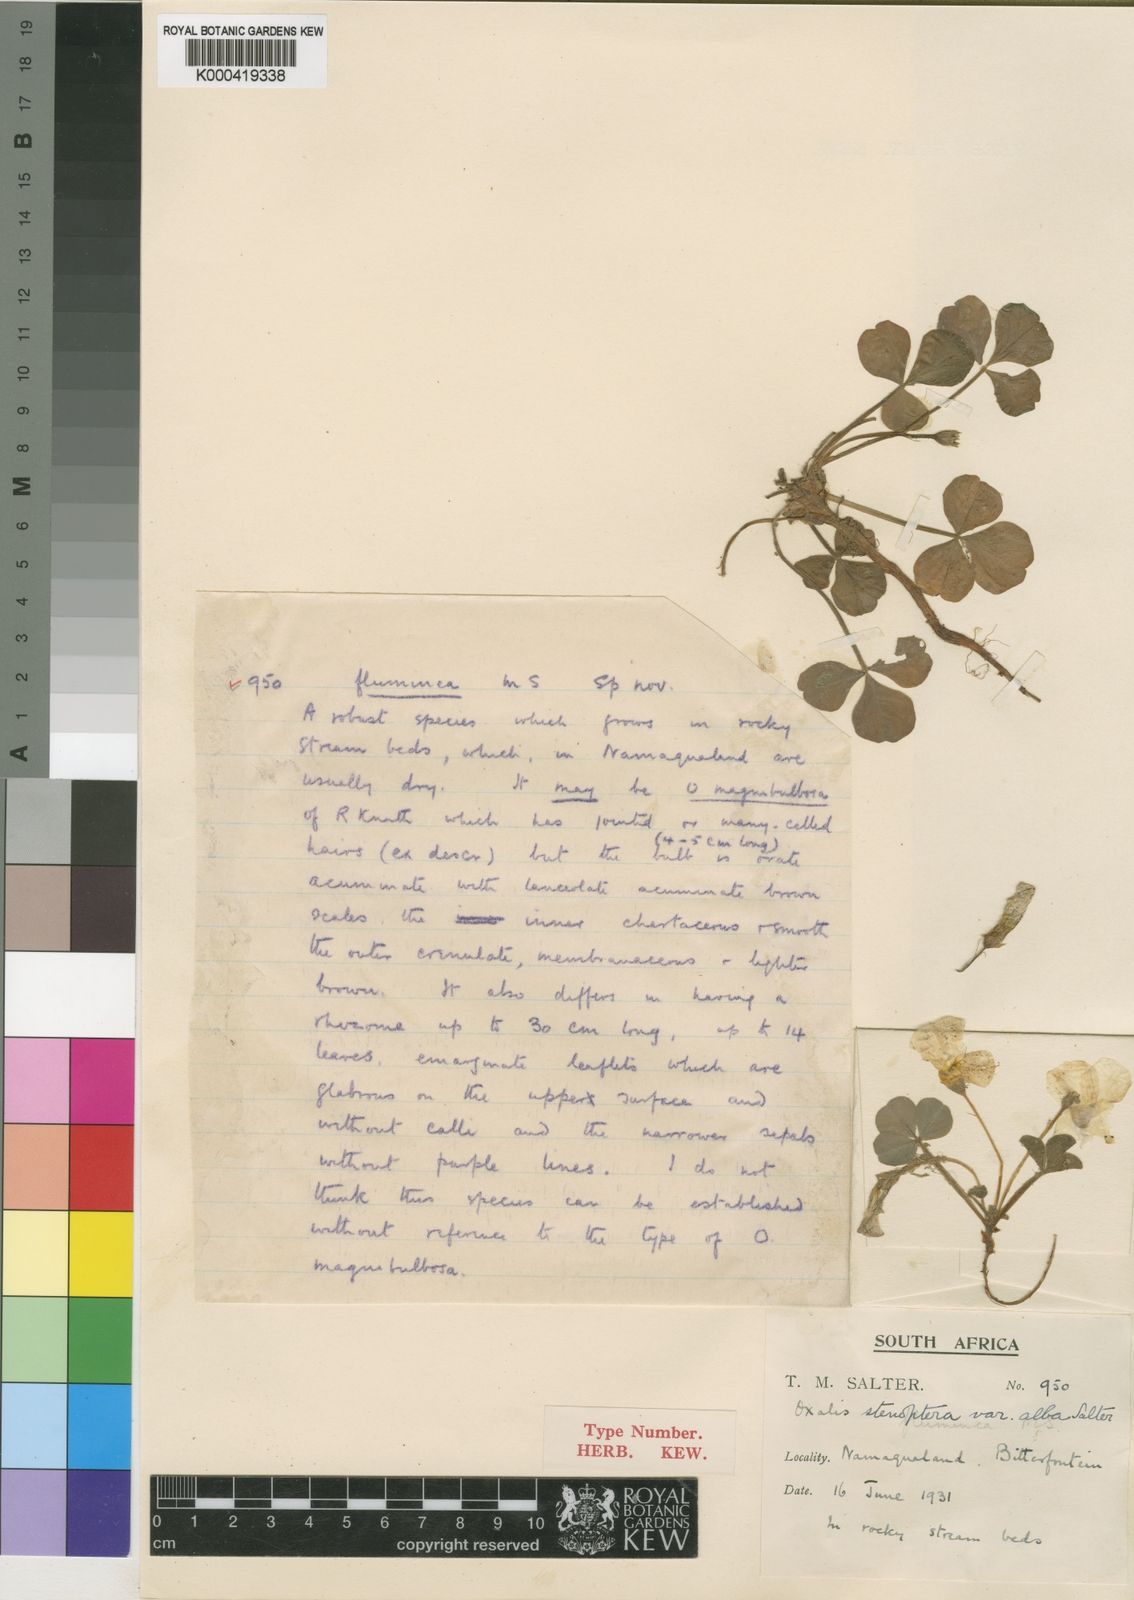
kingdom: Plantae
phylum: Tracheophyta
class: Magnoliopsida
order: Oxalidales
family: Oxalidaceae
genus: Oxalis
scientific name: Oxalis stenoptera
